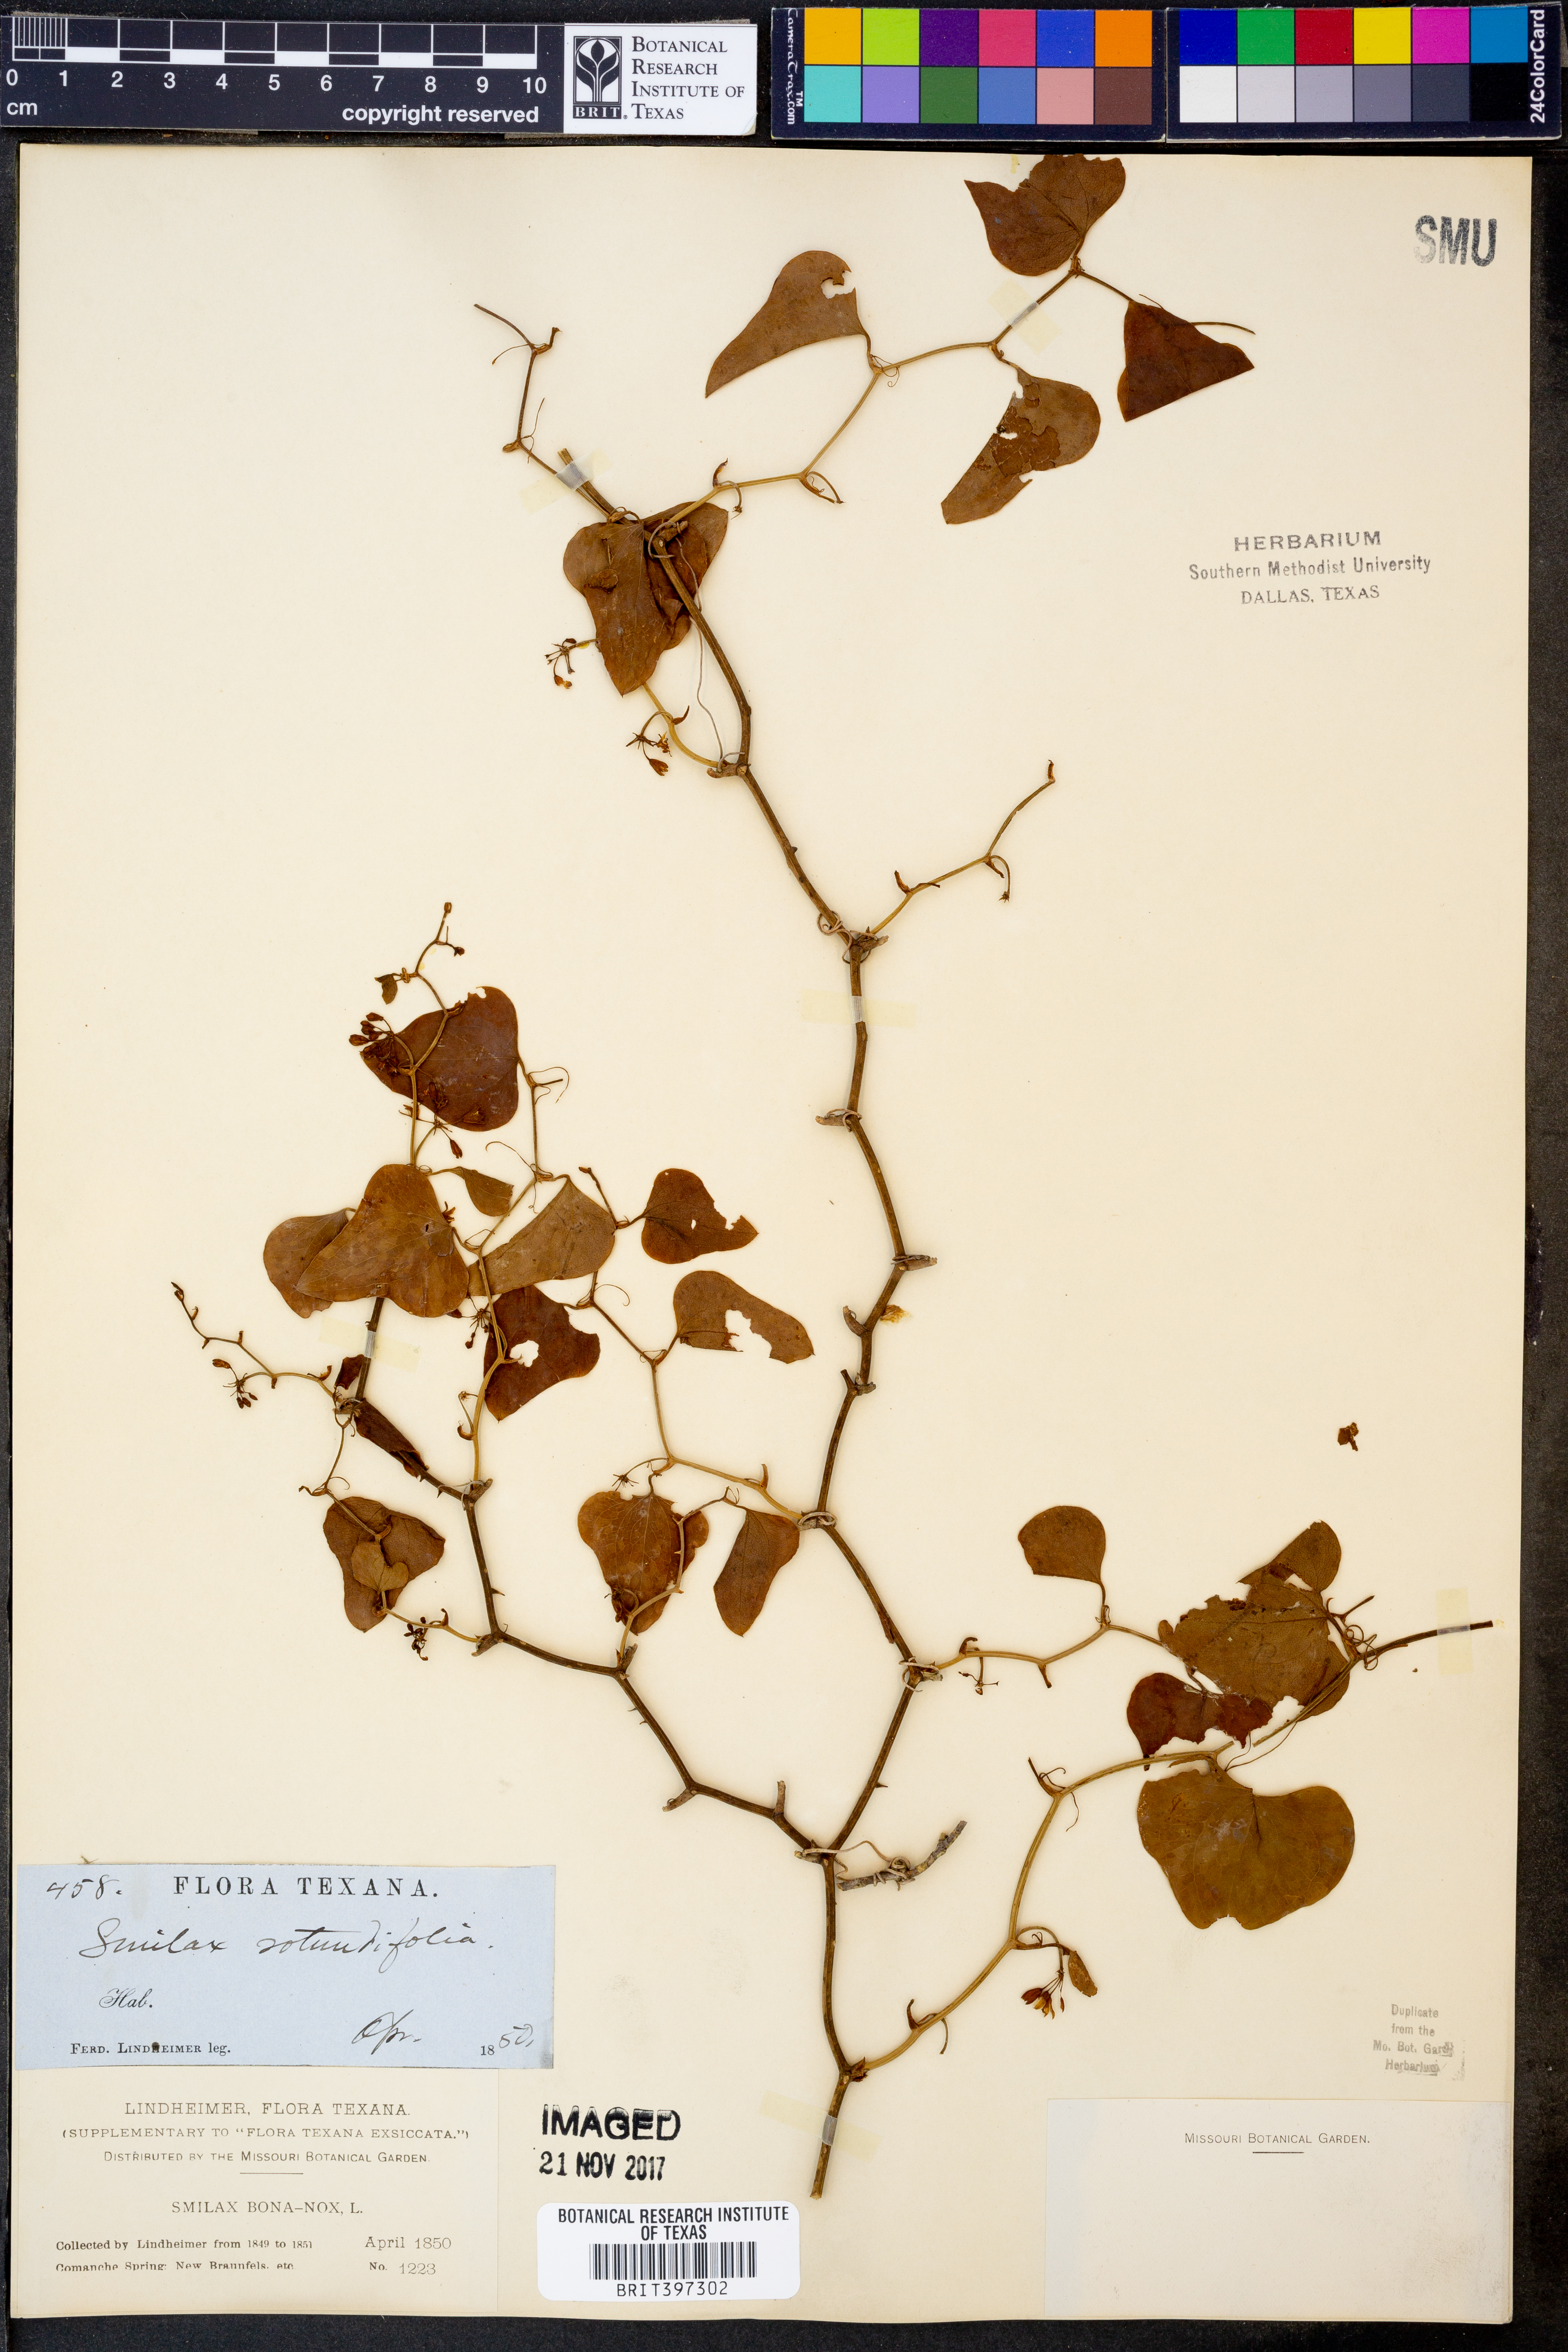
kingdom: Plantae
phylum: Tracheophyta
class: Liliopsida
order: Liliales
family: Smilacaceae
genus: Smilax
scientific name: Smilax bona-nox
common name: Catbrier
